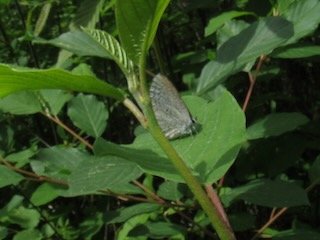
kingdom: Animalia
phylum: Arthropoda
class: Insecta
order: Lepidoptera
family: Lycaenidae
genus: Celastrina
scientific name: Celastrina
